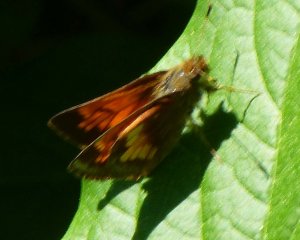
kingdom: Animalia
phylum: Arthropoda
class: Insecta
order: Lepidoptera
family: Hesperiidae
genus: Lon
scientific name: Lon hobomok
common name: Hobomok Skipper
